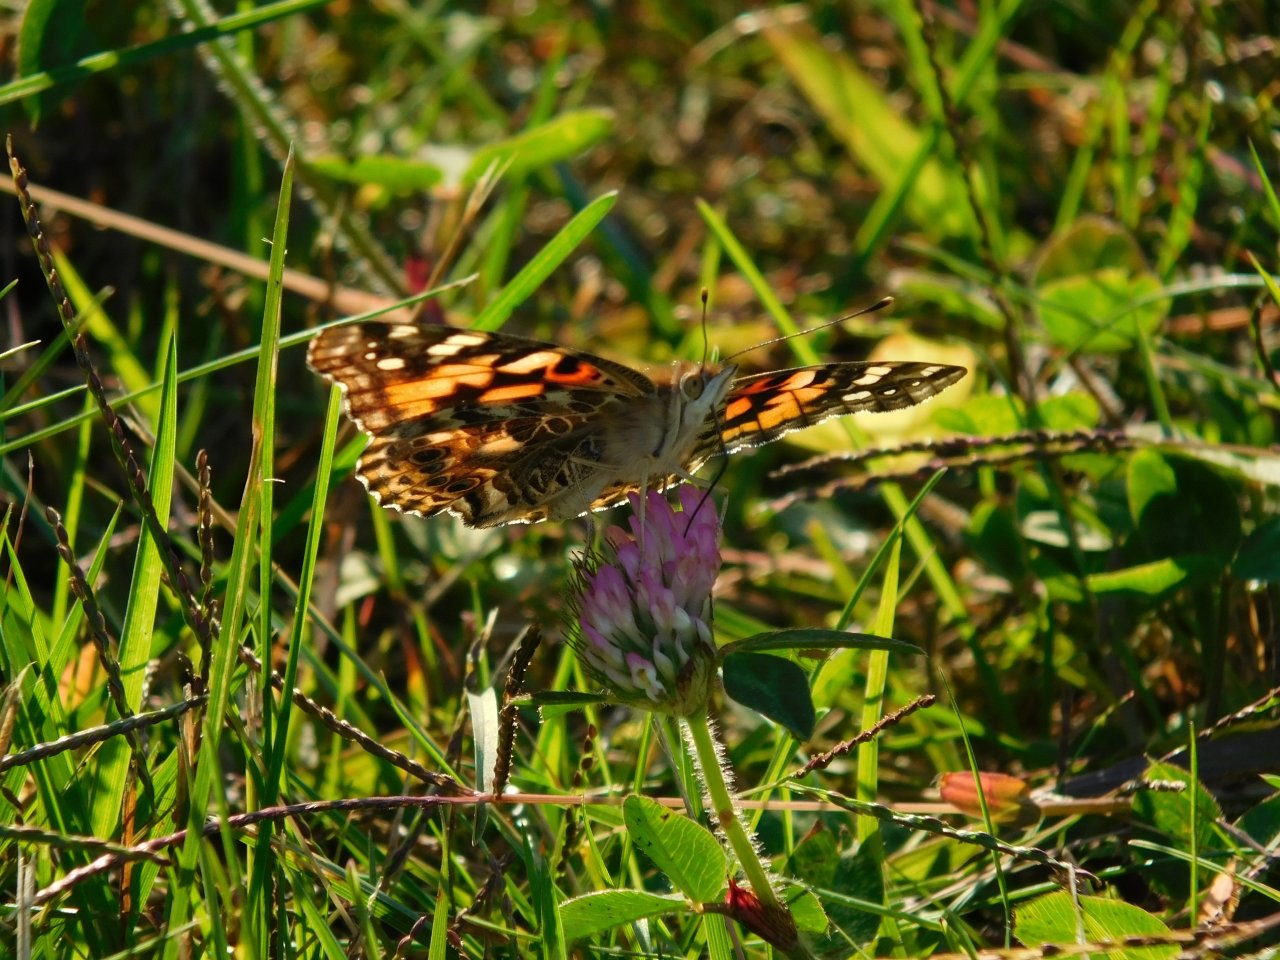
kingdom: Animalia
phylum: Arthropoda
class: Insecta
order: Lepidoptera
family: Nymphalidae
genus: Vanessa
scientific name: Vanessa cardui
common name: Painted Lady
